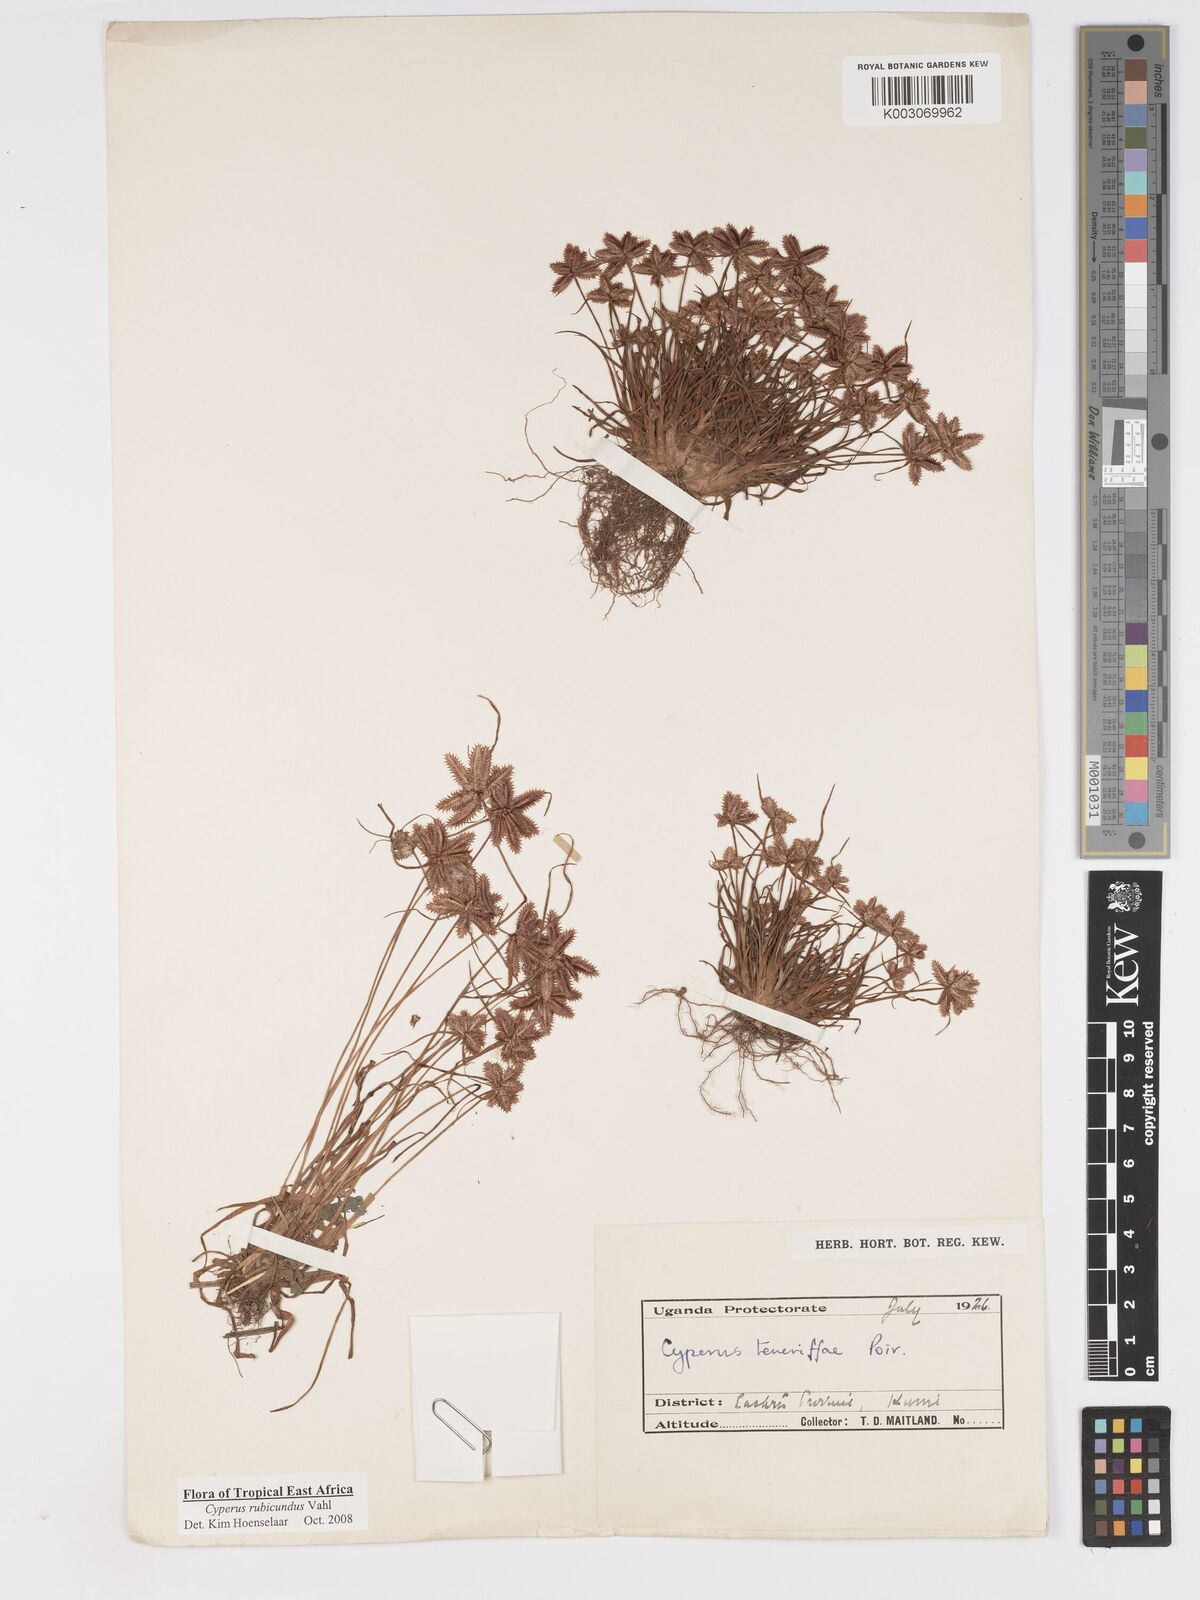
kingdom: Plantae
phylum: Tracheophyta
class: Liliopsida
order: Poales
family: Cyperaceae
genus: Cyperus
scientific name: Cyperus rubicundus
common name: Coco-grass
